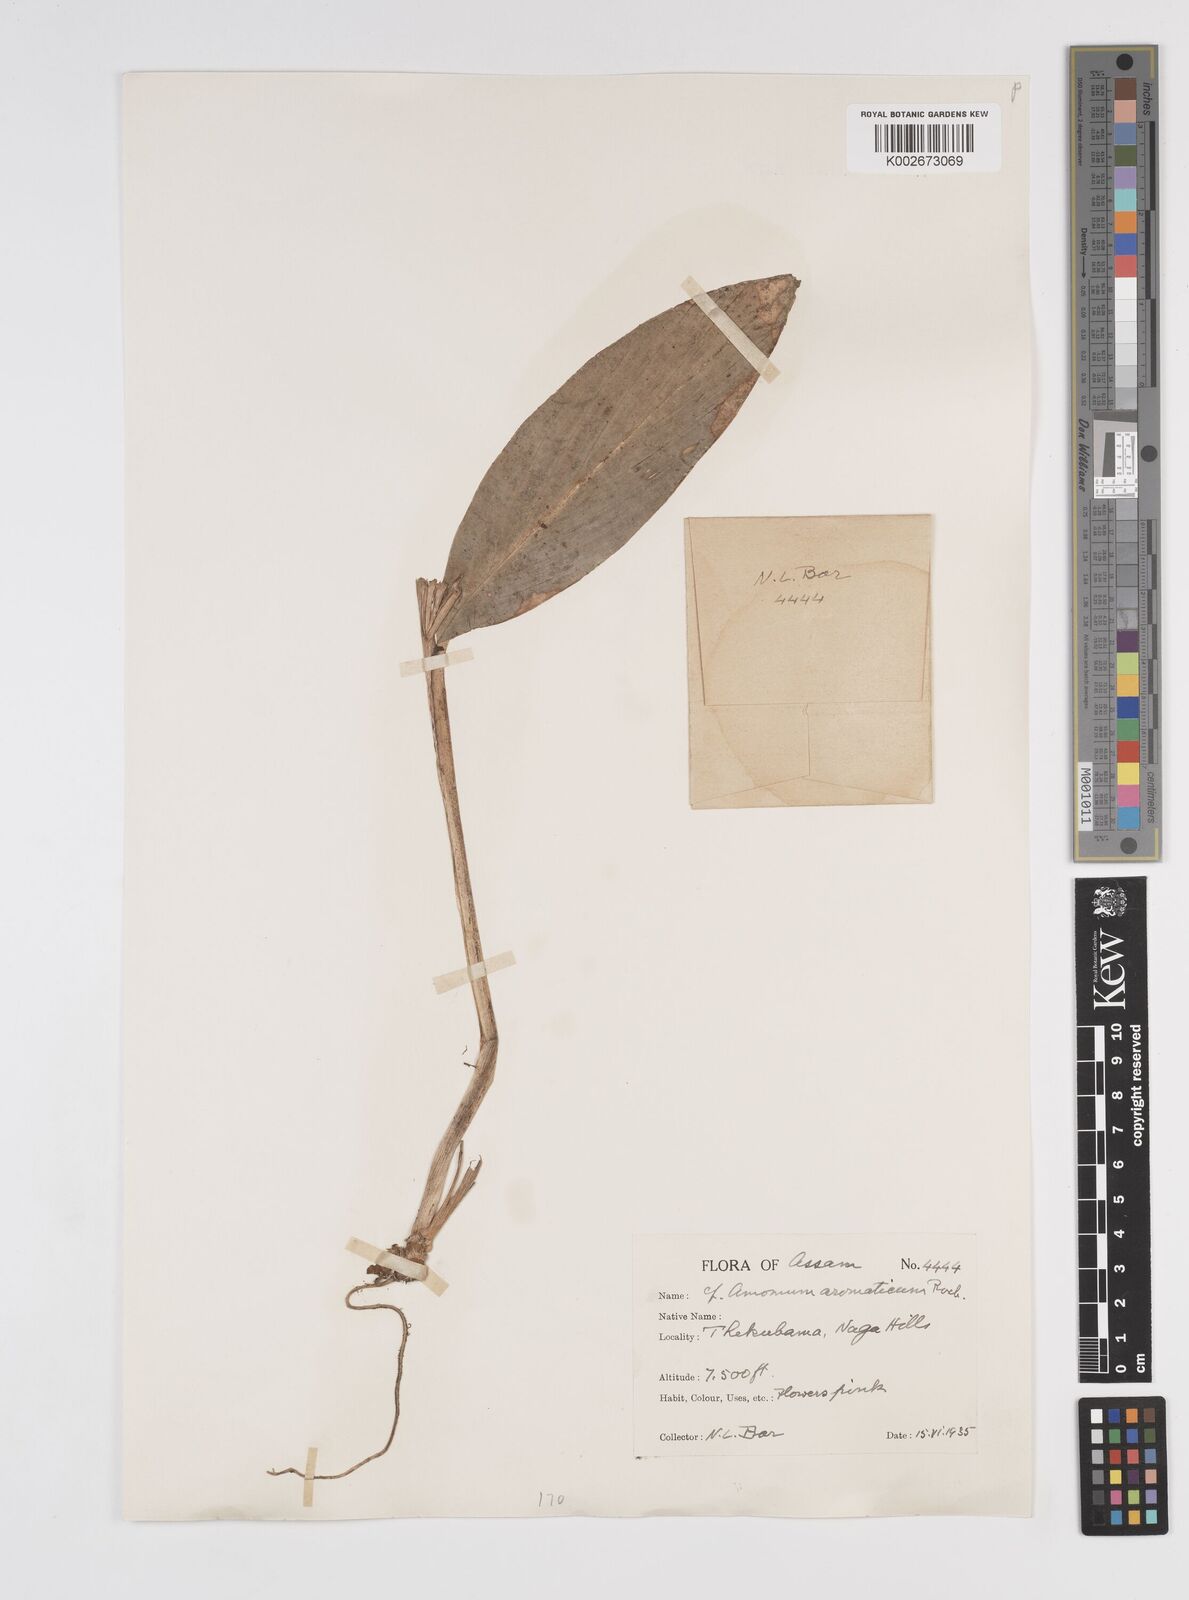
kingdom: Plantae
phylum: Tracheophyta
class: Liliopsida
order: Zingiberales
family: Zingiberaceae
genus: Wurfbainia
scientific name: Wurfbainia aromatica
